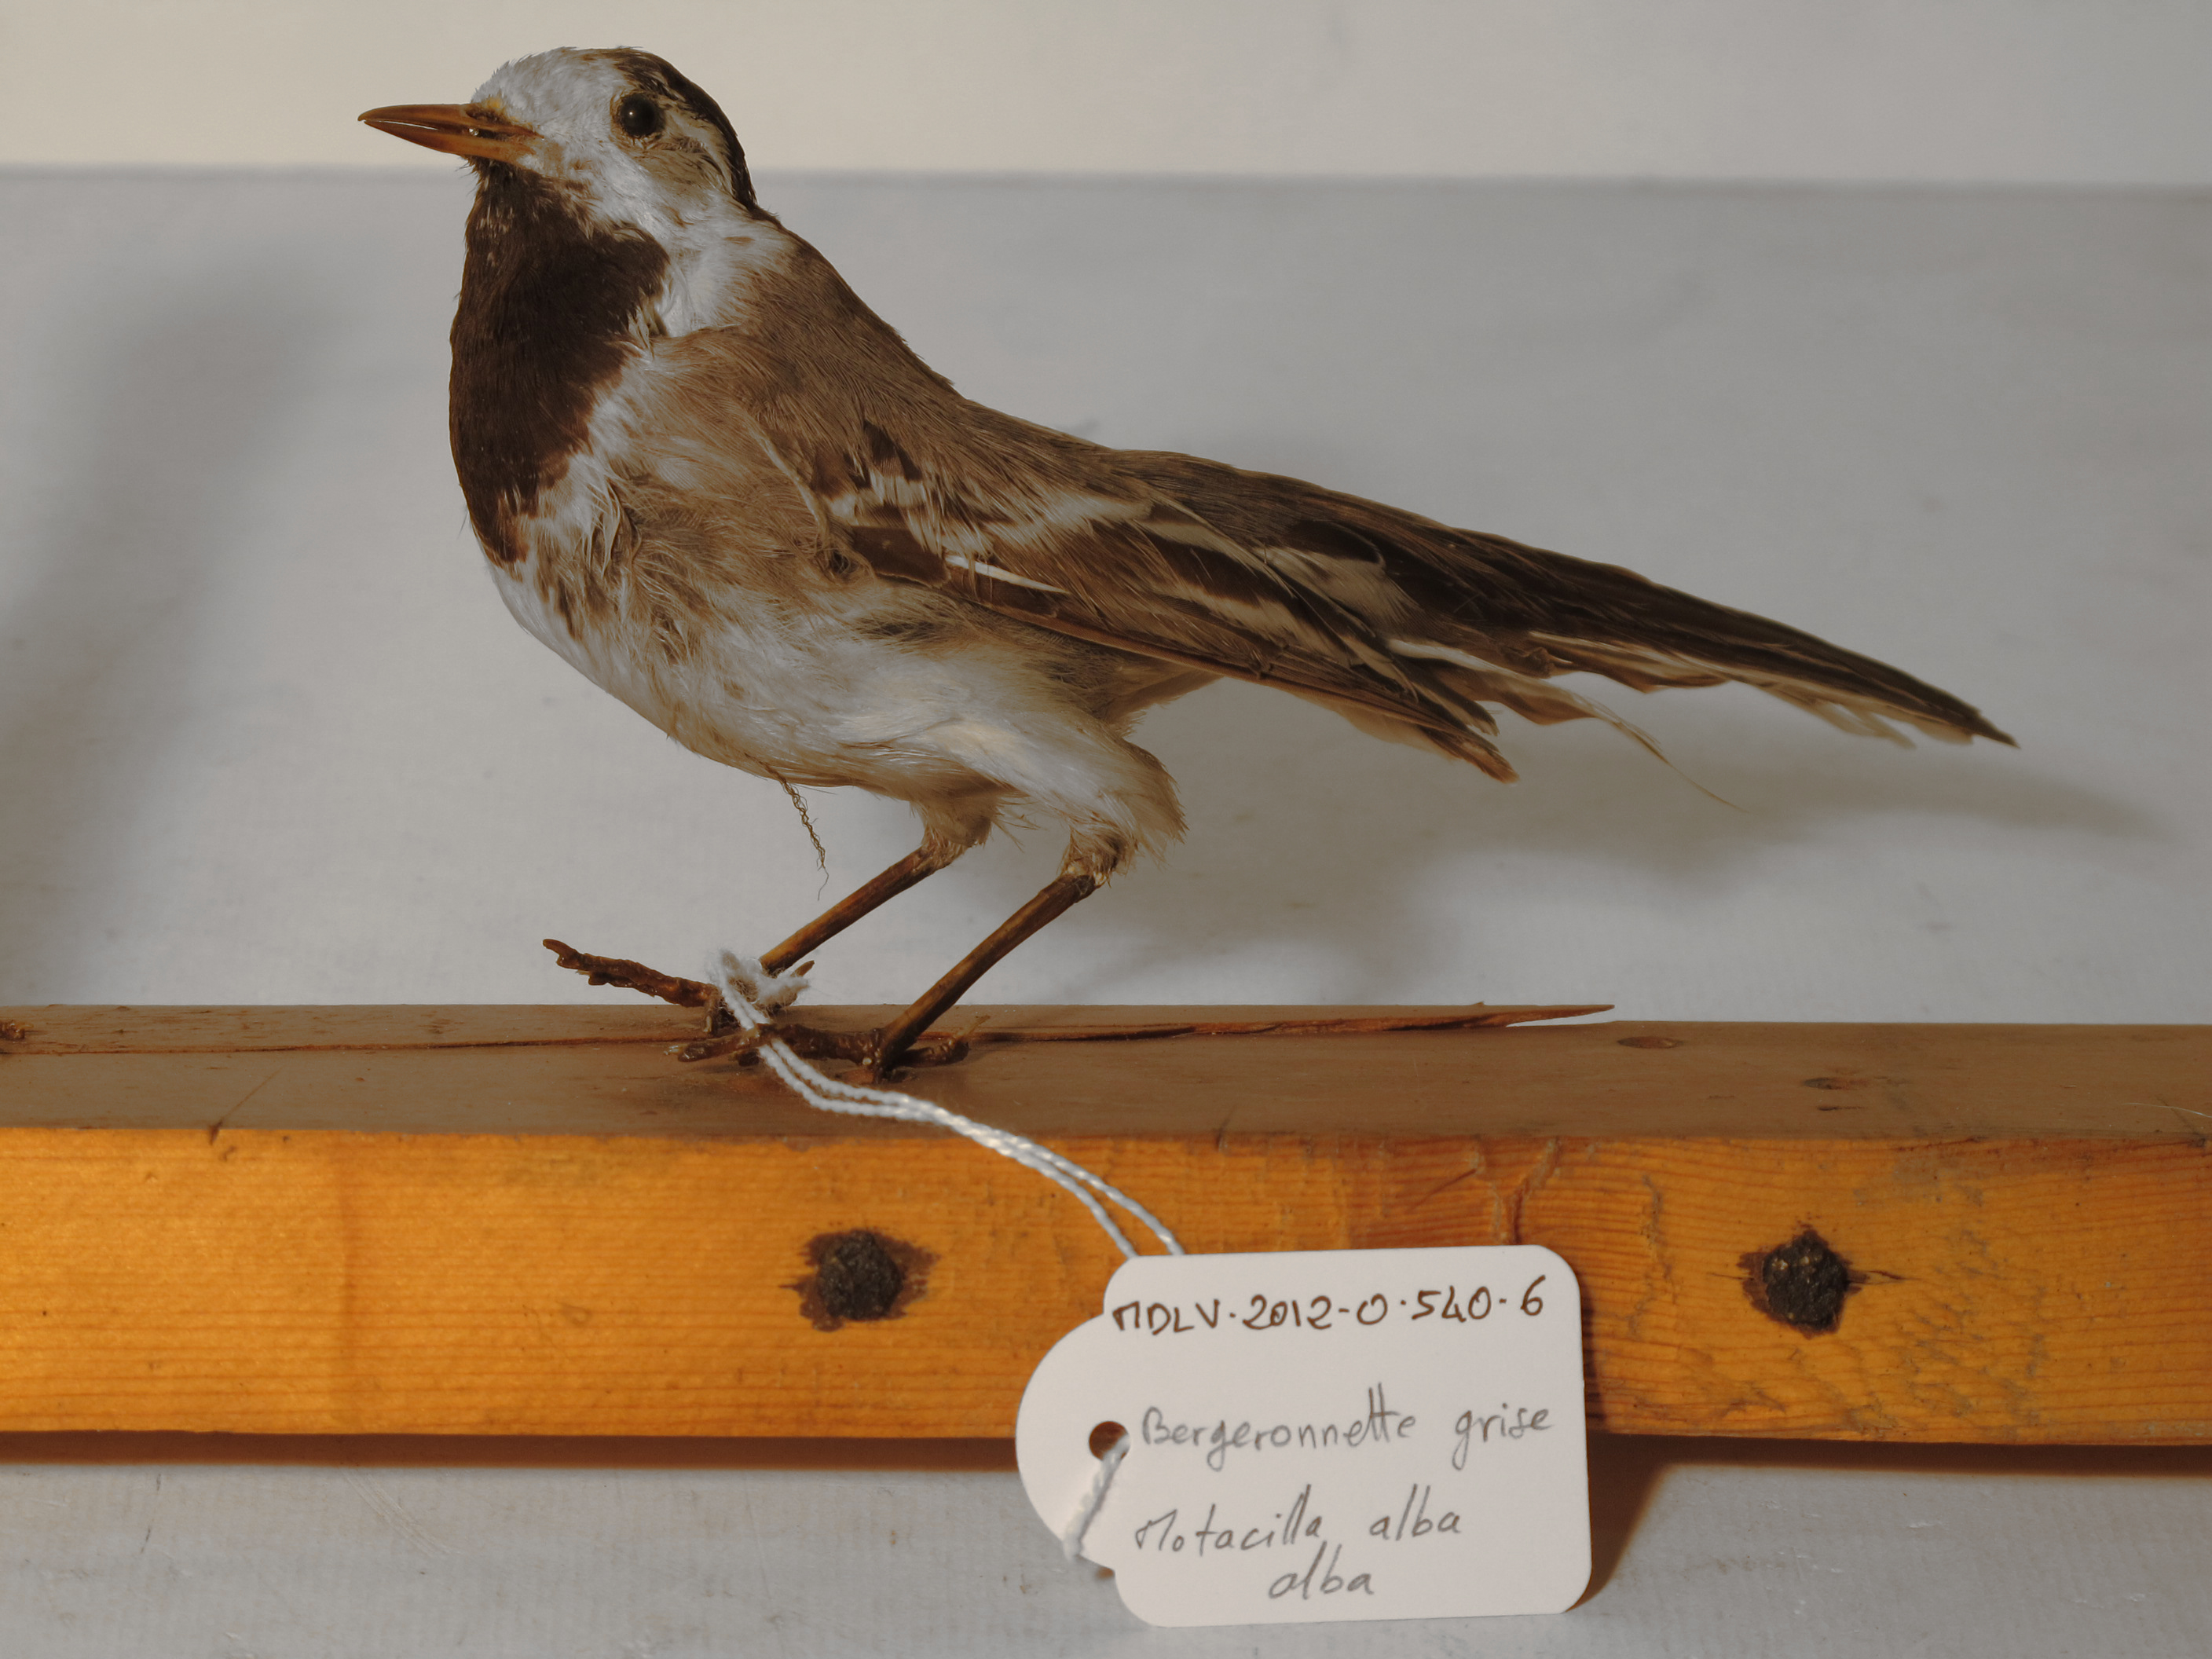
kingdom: Animalia
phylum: Chordata
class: Aves
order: Passeriformes
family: Motacillidae
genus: Motacilla
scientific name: Motacilla alba
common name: White Wagtail
